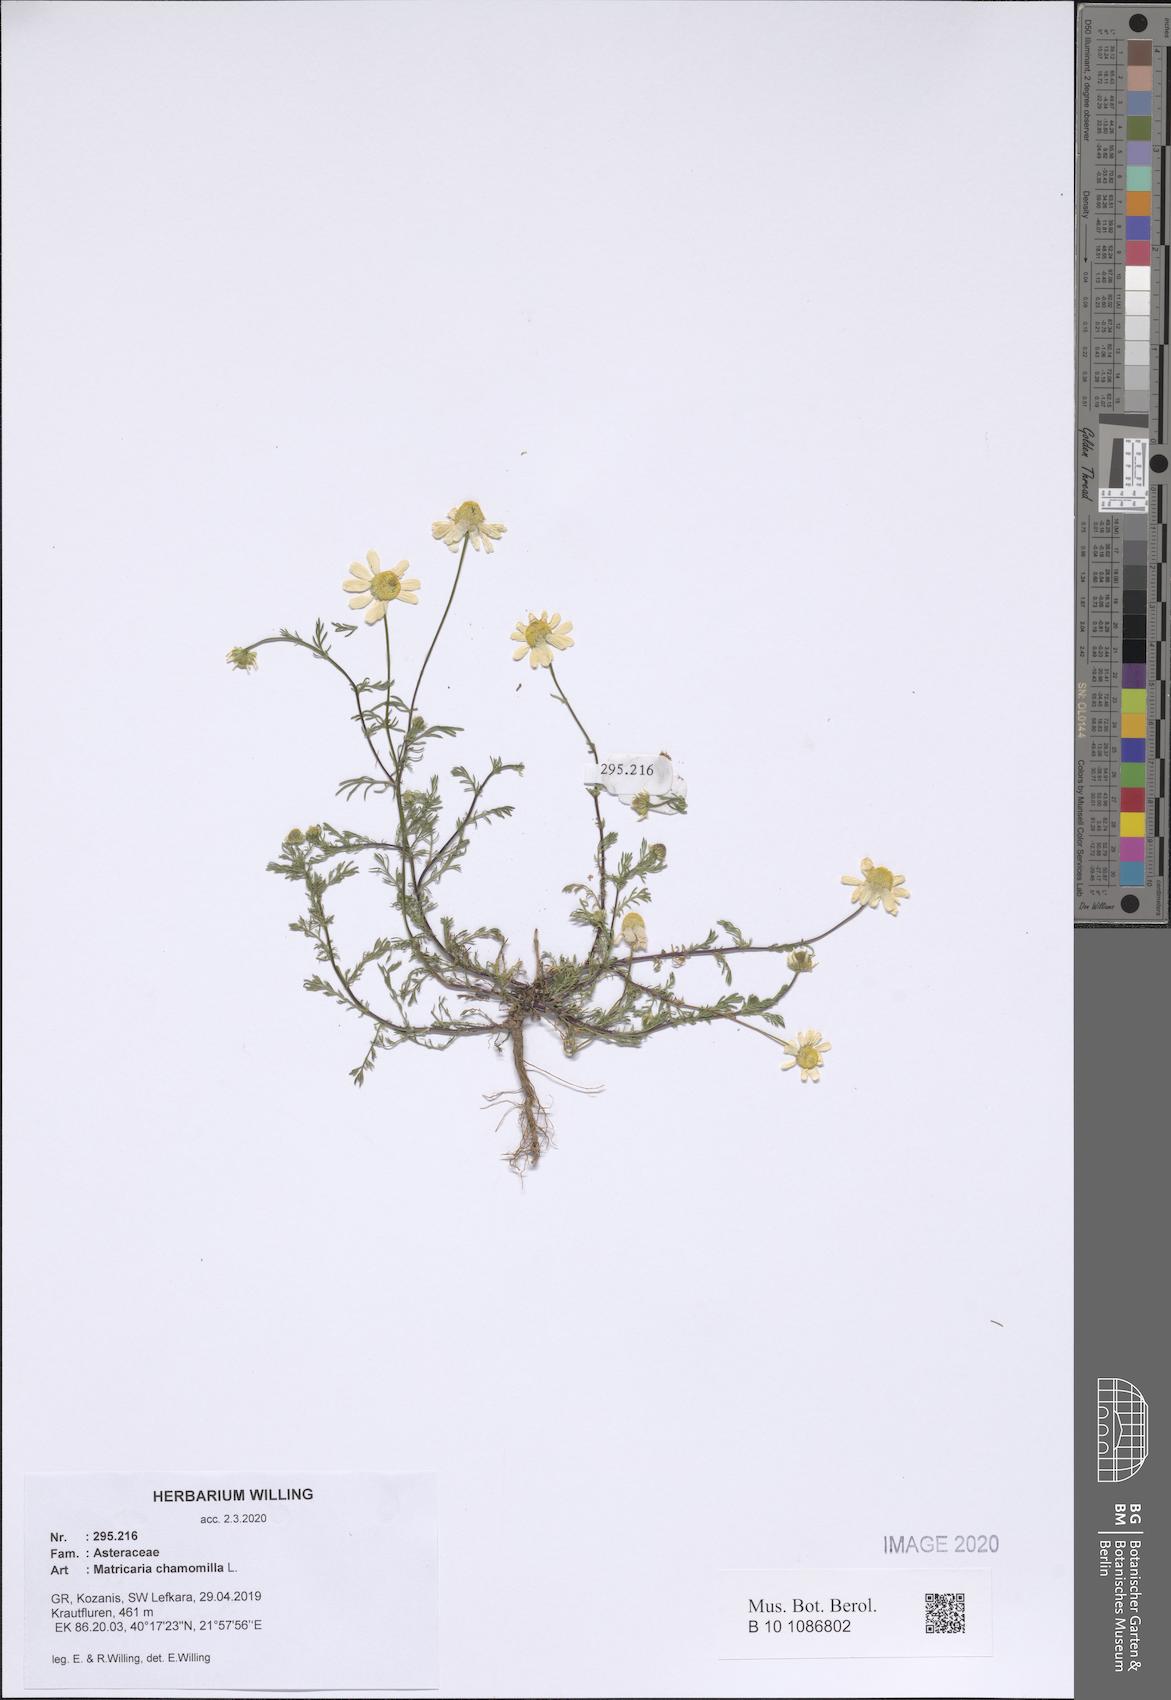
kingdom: Plantae
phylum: Tracheophyta
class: Magnoliopsida
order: Asterales
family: Asteraceae
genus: Matricaria
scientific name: Matricaria chamomilla
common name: Scented mayweed
